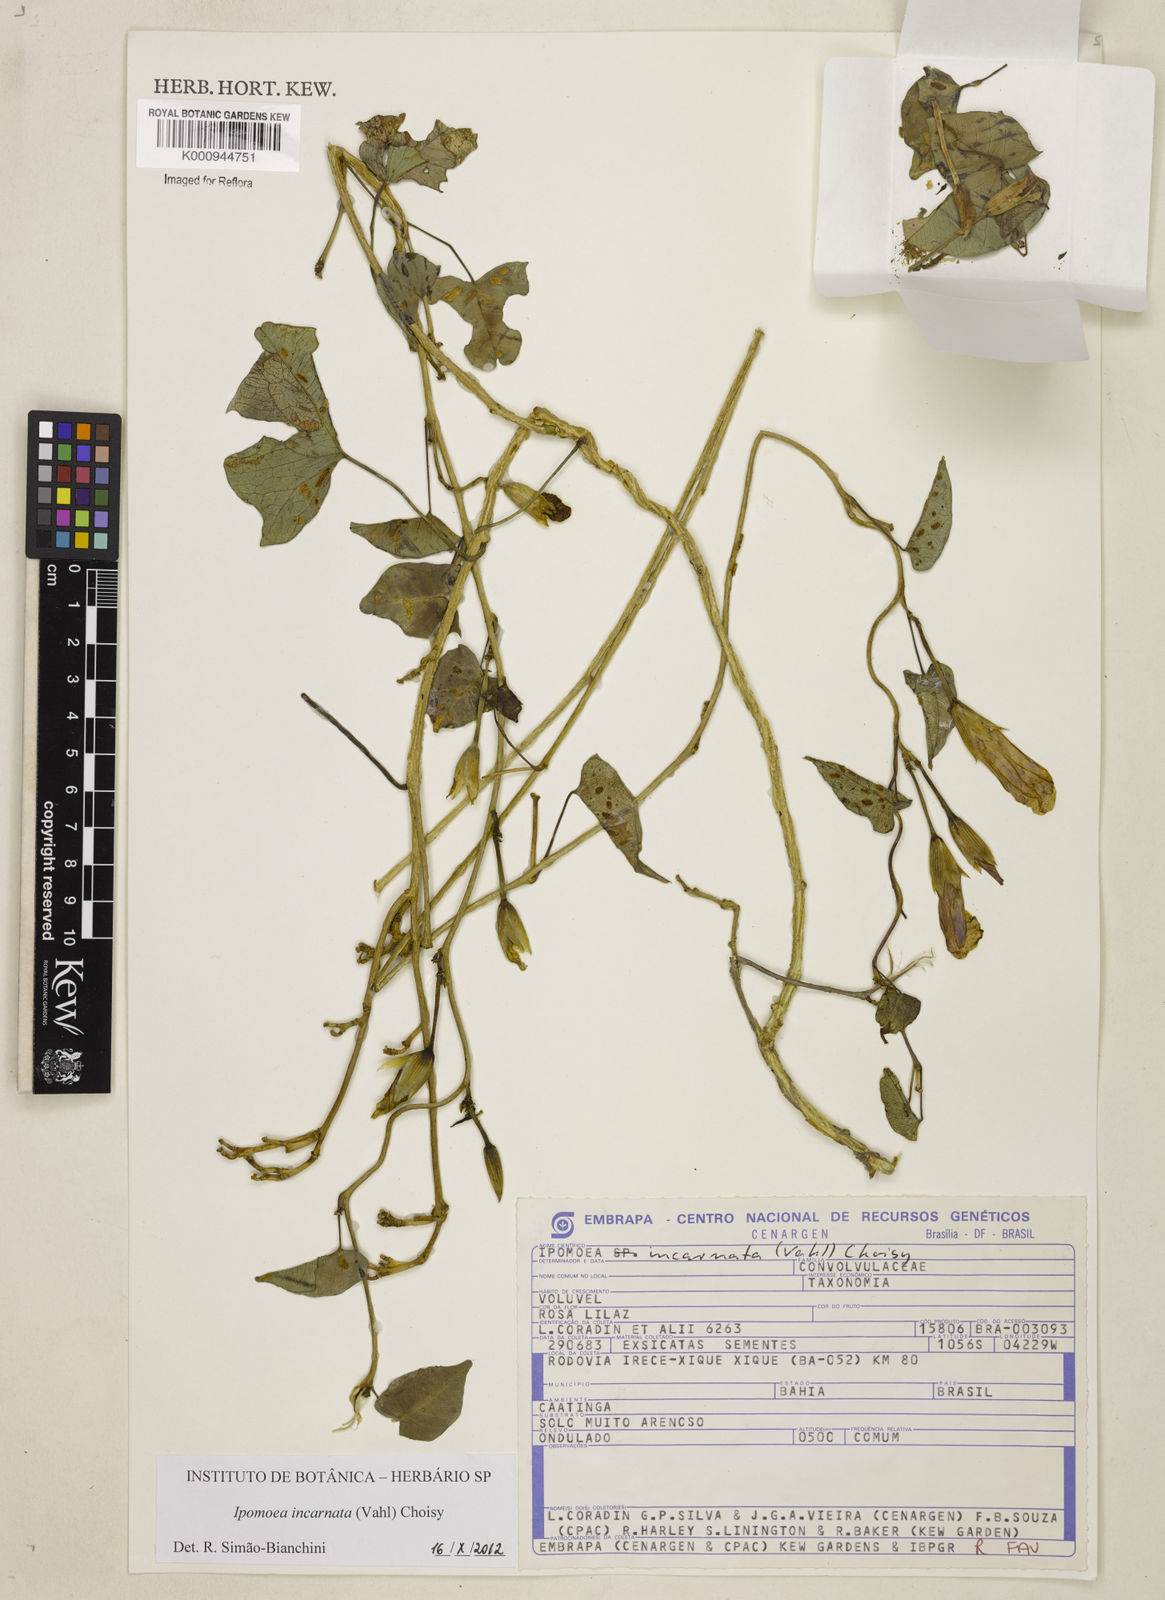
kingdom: Plantae
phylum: Tracheophyta
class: Magnoliopsida
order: Solanales
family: Convolvulaceae
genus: Ipomoea
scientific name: Ipomoea incarnata
